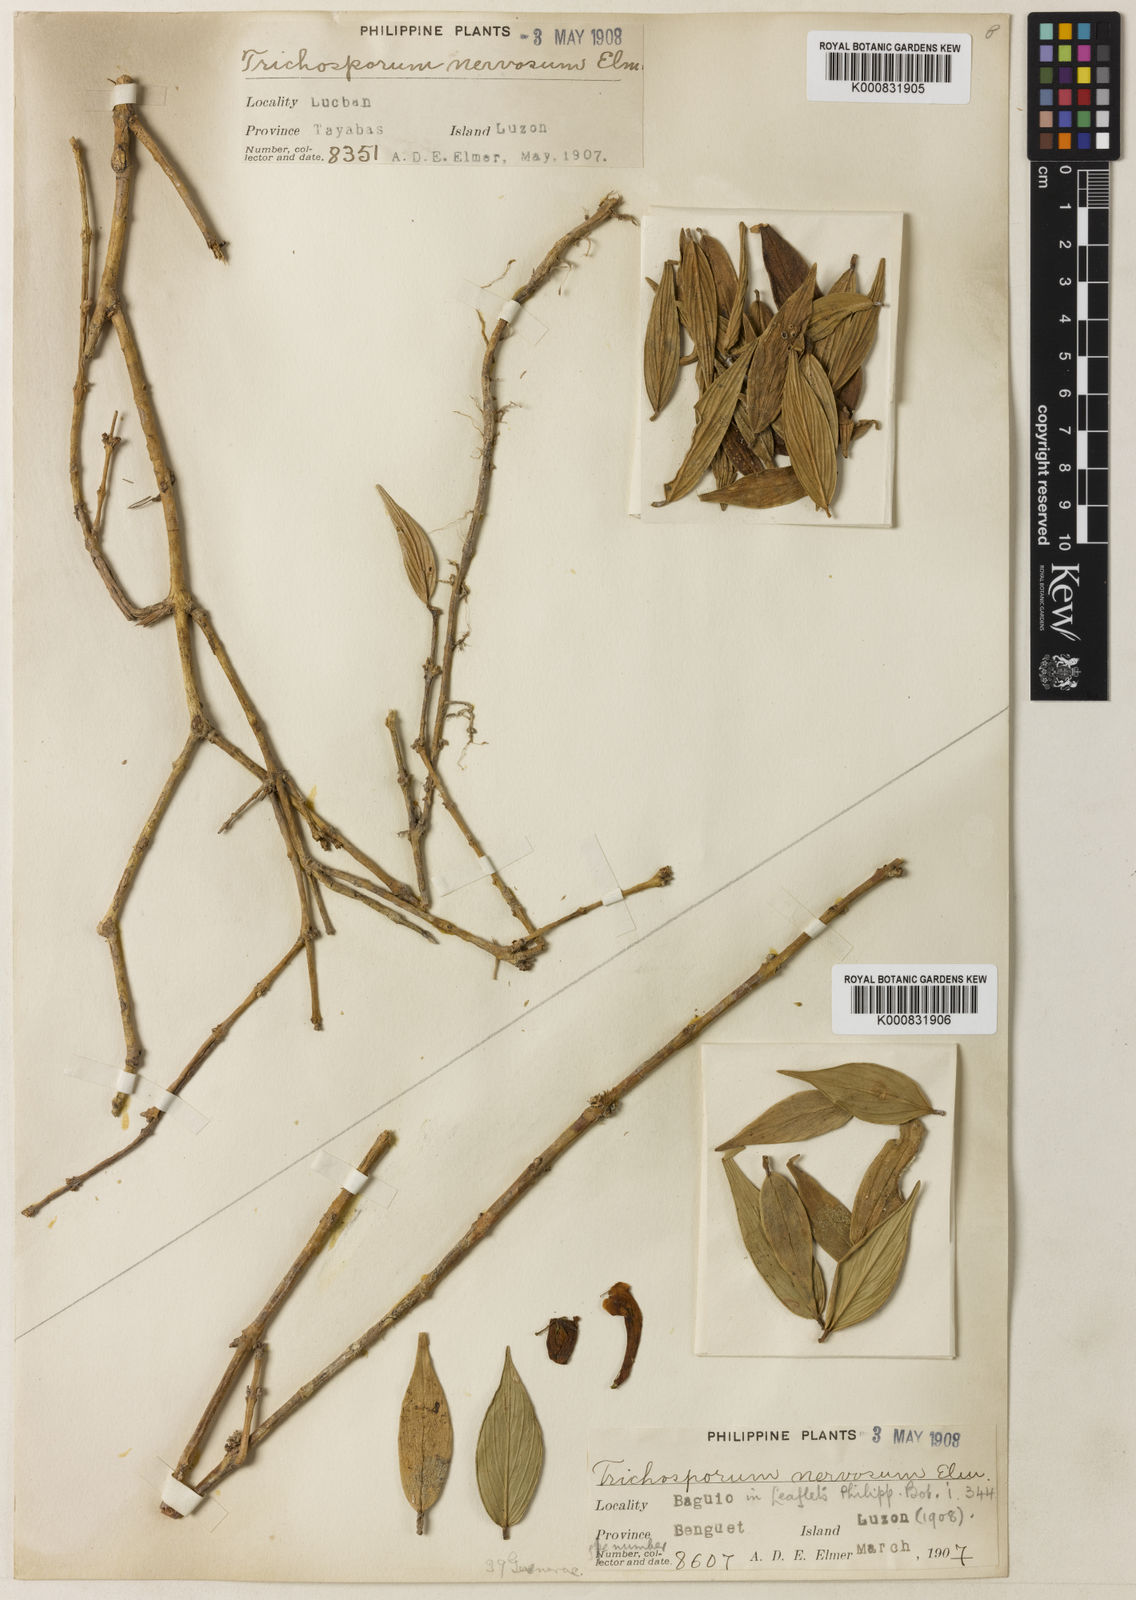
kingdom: Plantae
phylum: Tracheophyta
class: Magnoliopsida
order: Lamiales
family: Gesneriaceae
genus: Aeschynanthus
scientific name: Aeschynanthus nervosus
